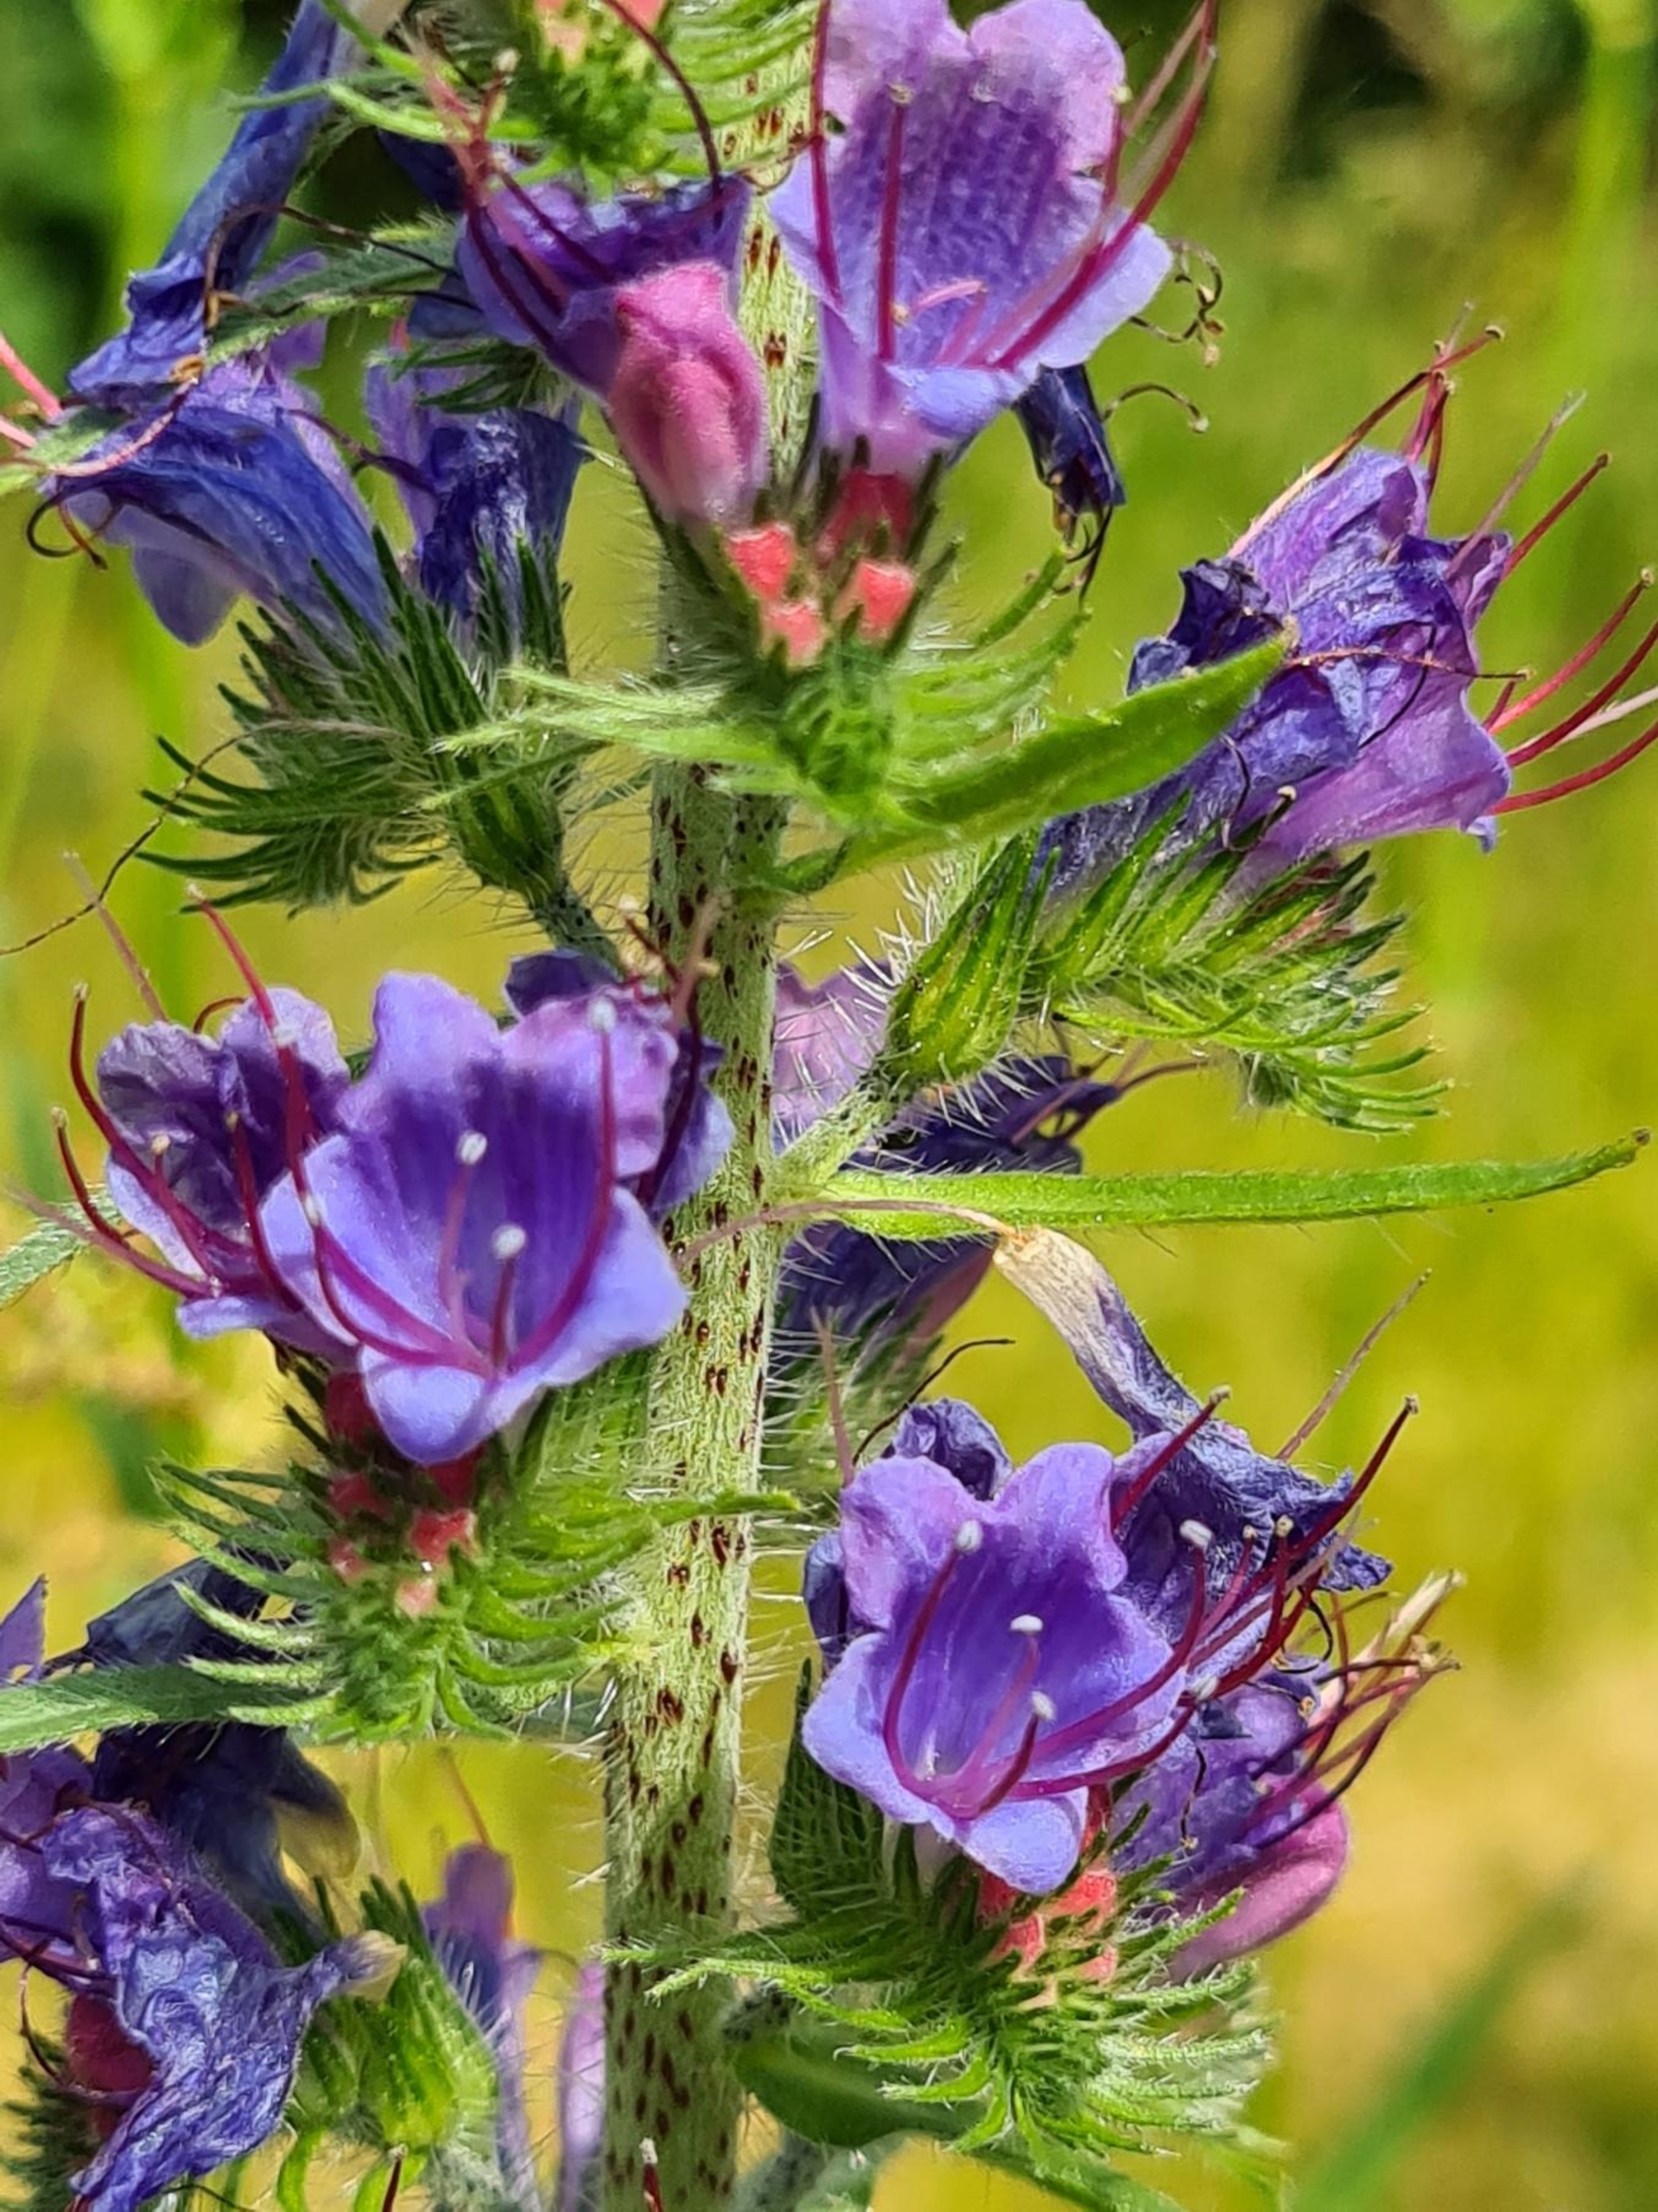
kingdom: Plantae
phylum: Tracheophyta
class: Magnoliopsida
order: Boraginales
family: Boraginaceae
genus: Echium
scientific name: Echium vulgare
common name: Slangehoved
